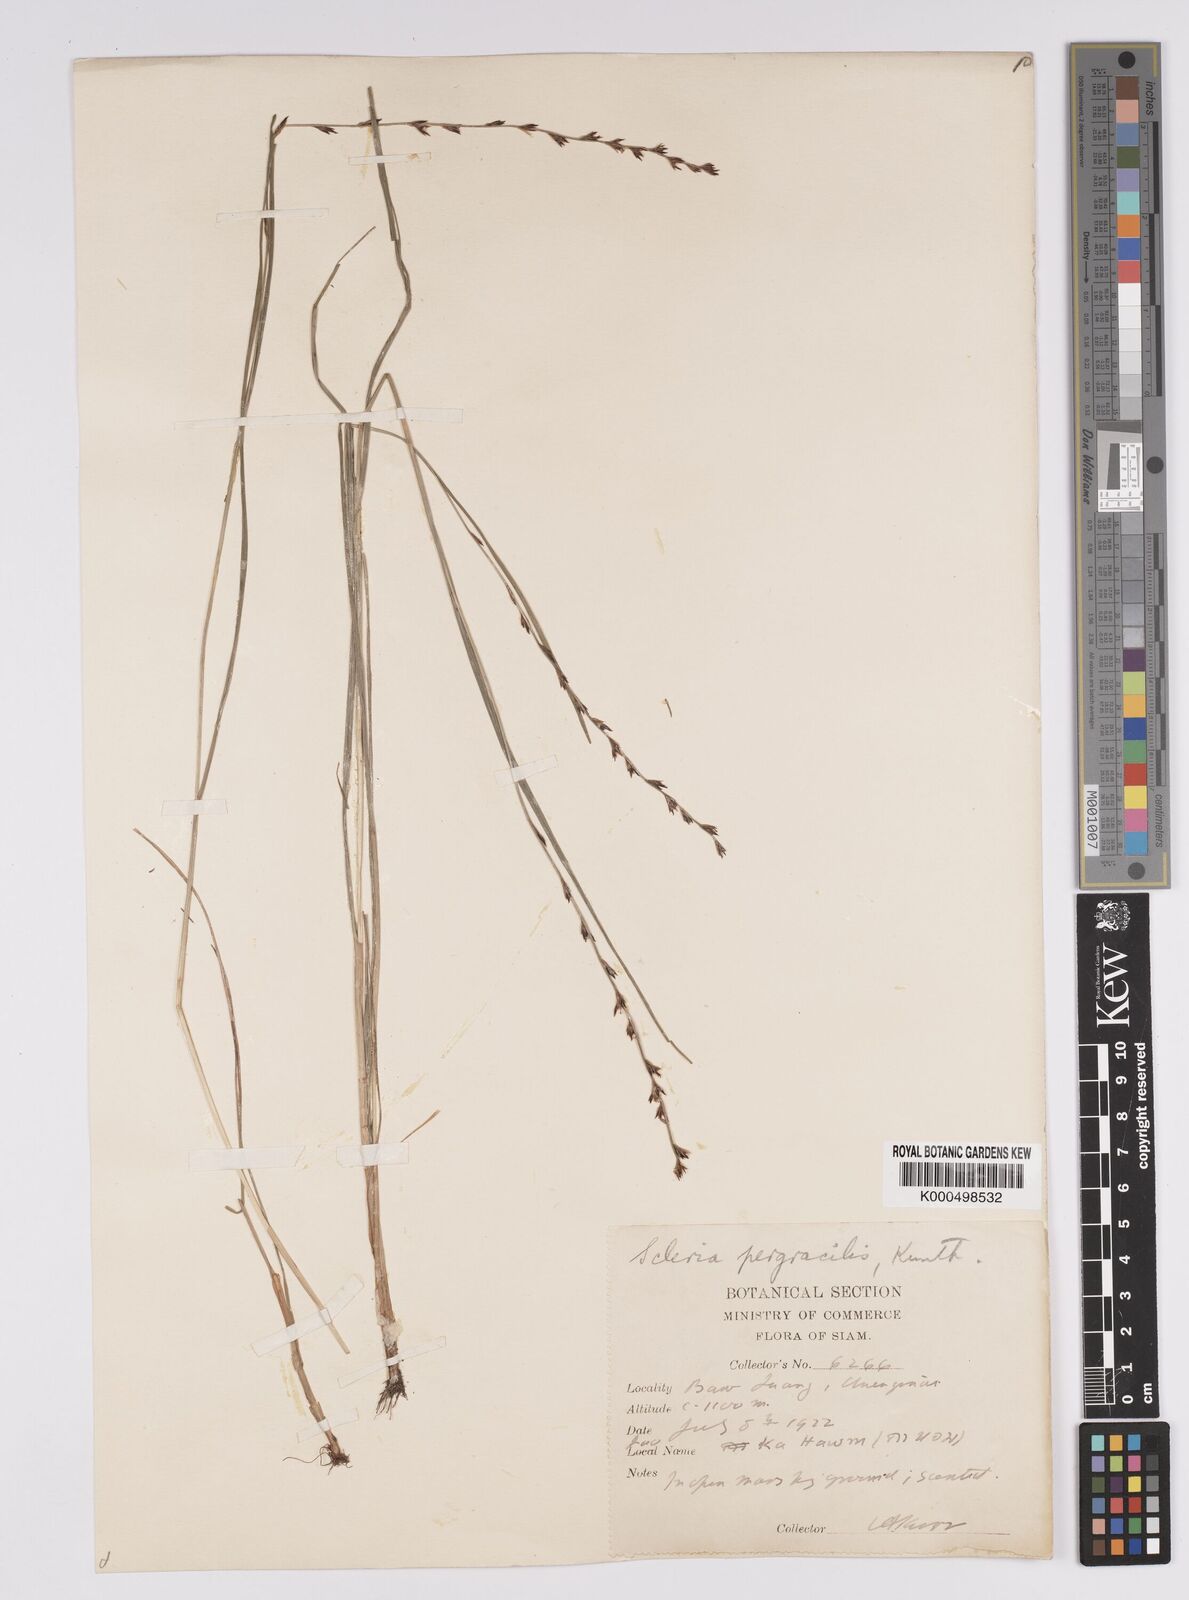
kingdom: Plantae
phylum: Tracheophyta
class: Liliopsida
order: Poales
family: Cyperaceae
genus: Scleria
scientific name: Scleria pergracilis
